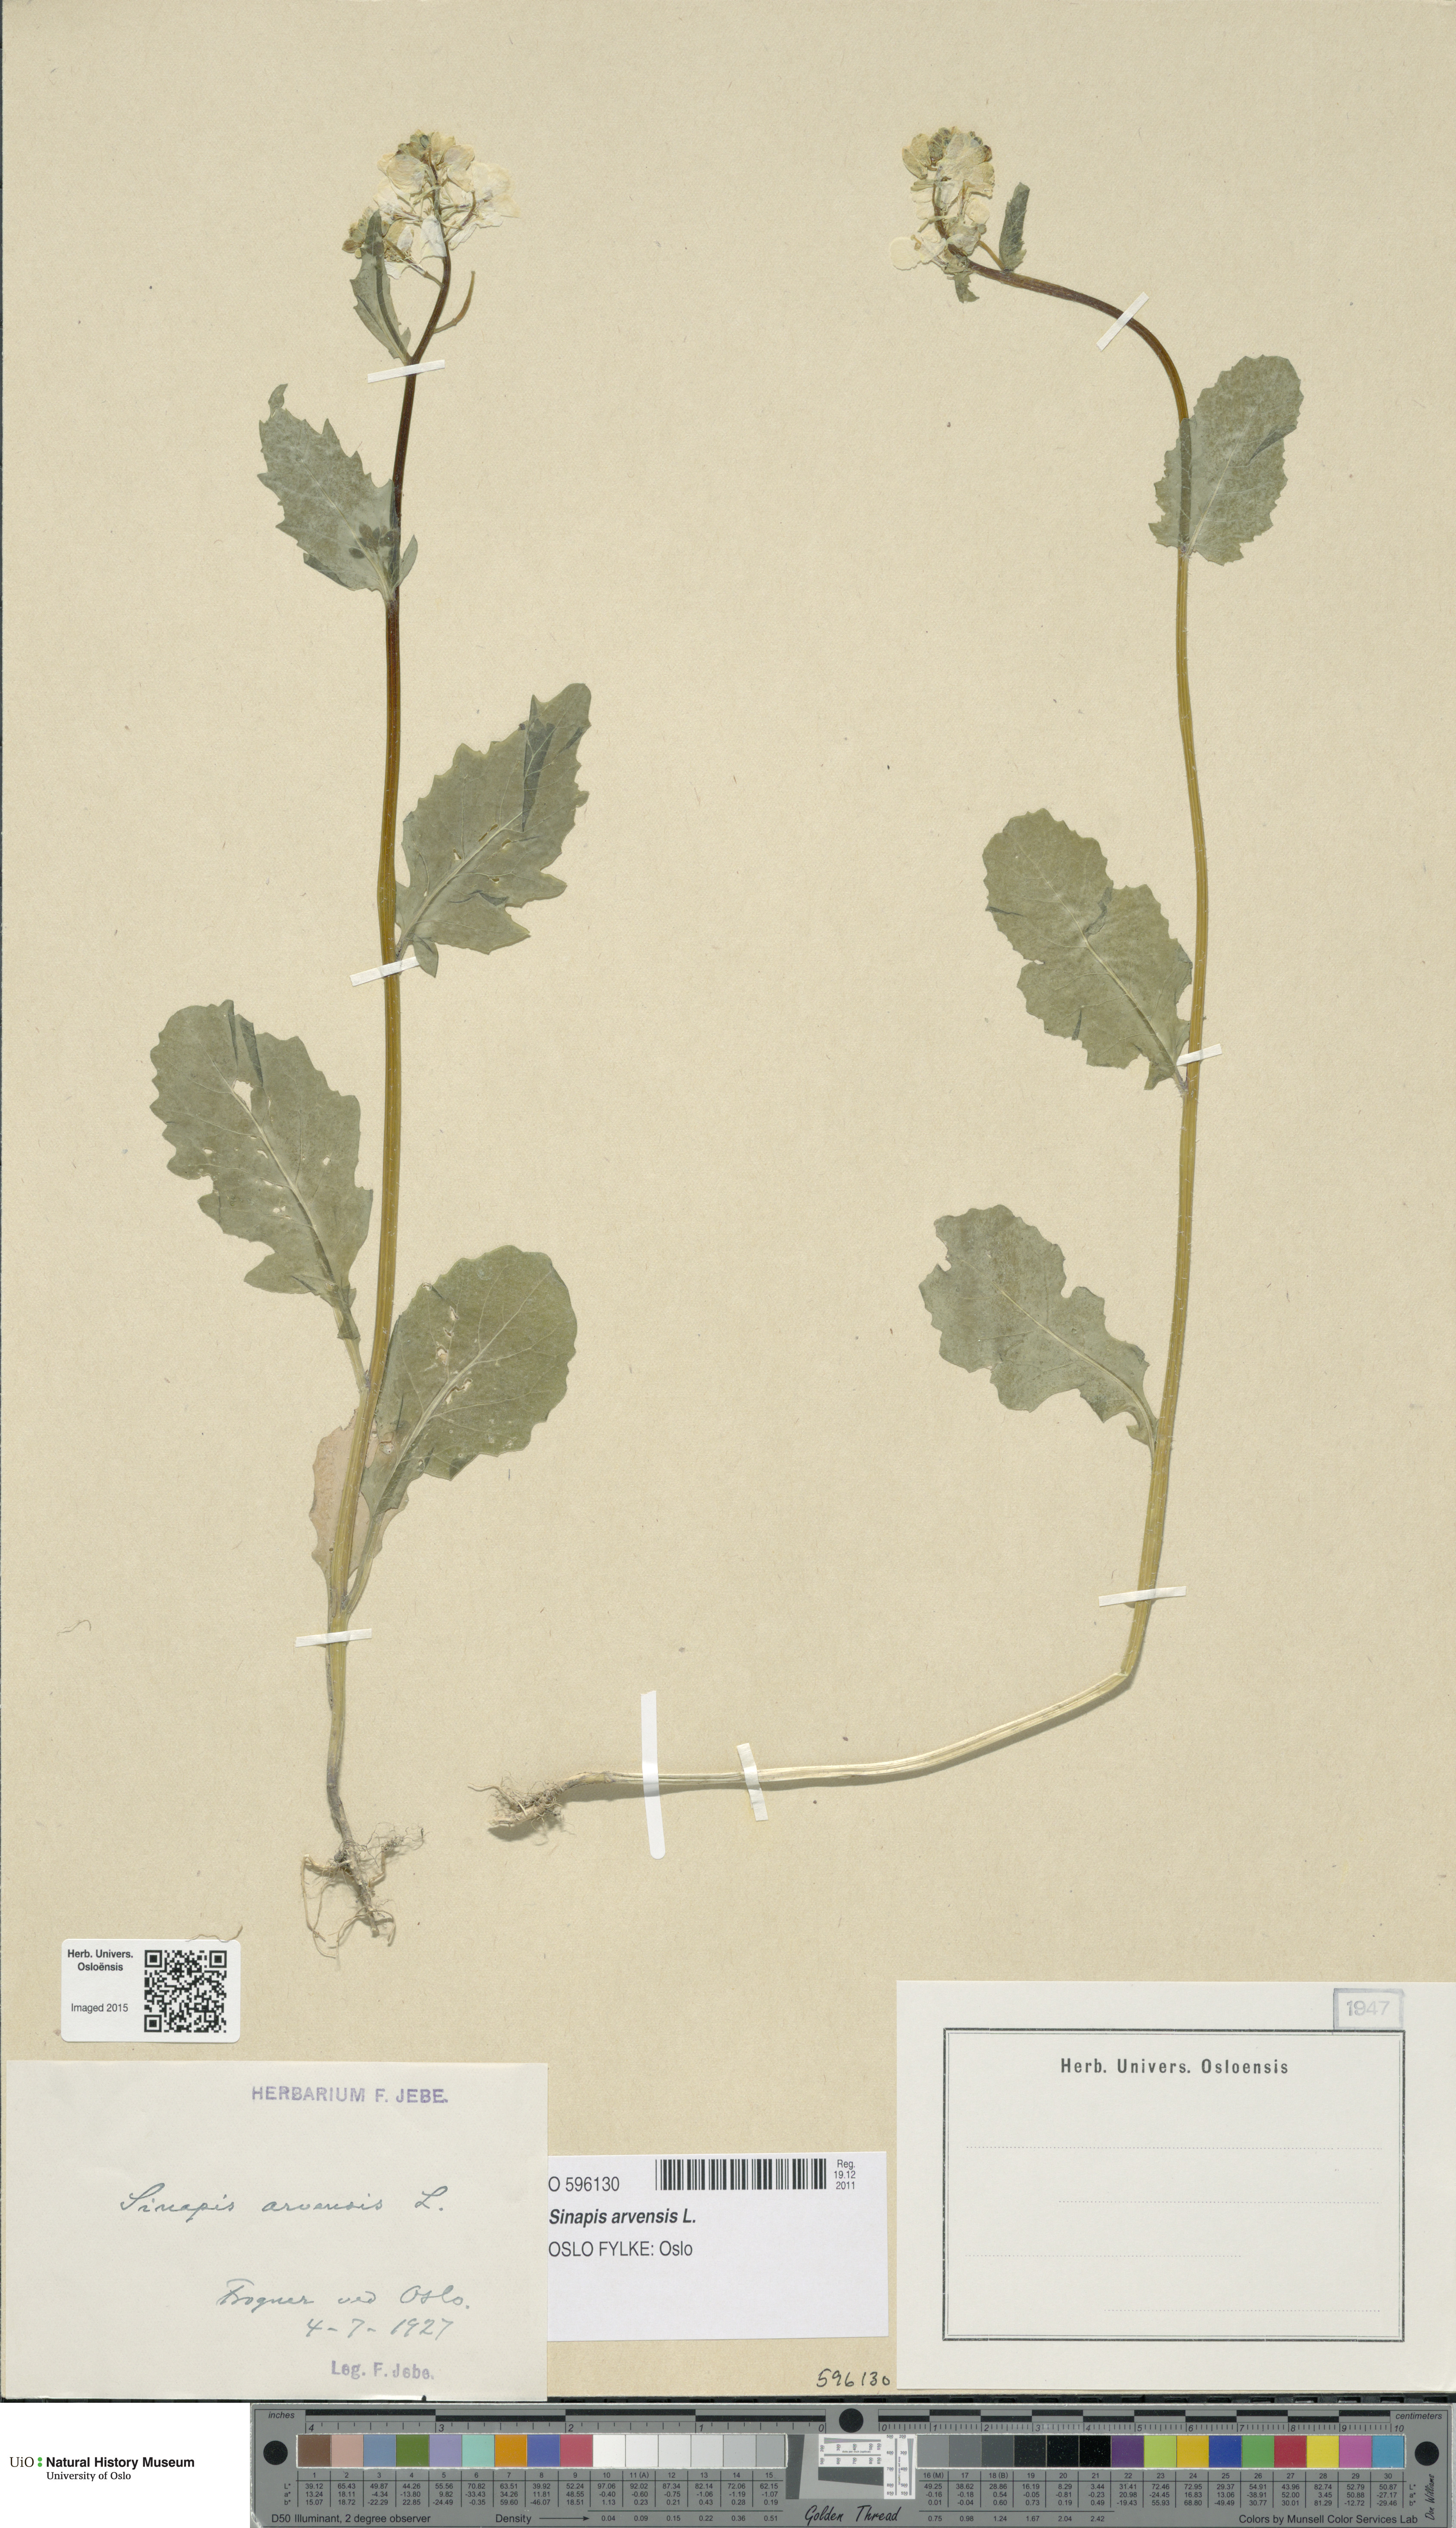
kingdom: Plantae
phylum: Tracheophyta
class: Magnoliopsida
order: Brassicales
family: Brassicaceae
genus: Sinapis
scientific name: Sinapis arvensis
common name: Charlock
